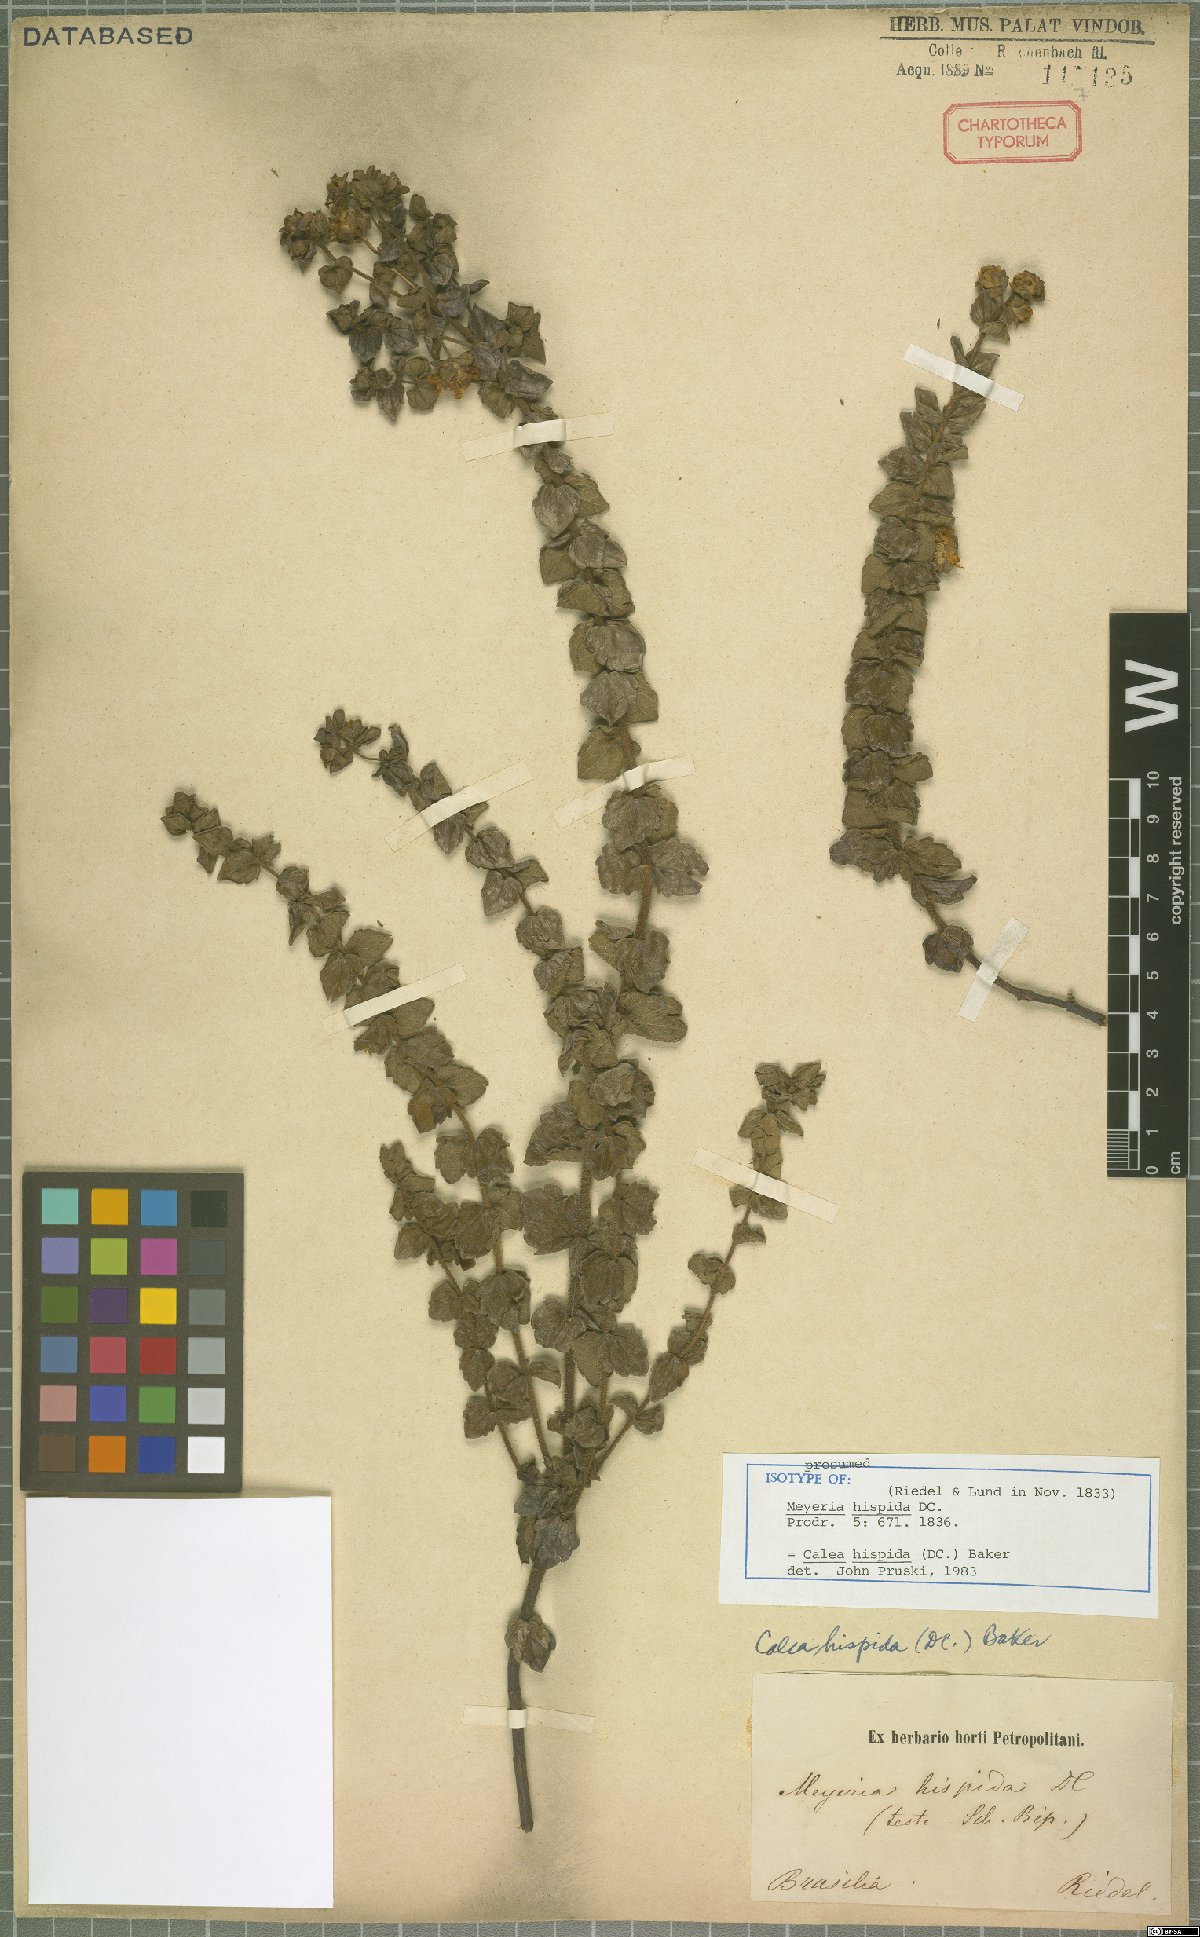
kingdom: Plantae
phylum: Tracheophyta
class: Magnoliopsida
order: Asterales
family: Asteraceae
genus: Calea
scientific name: Calea triantha
